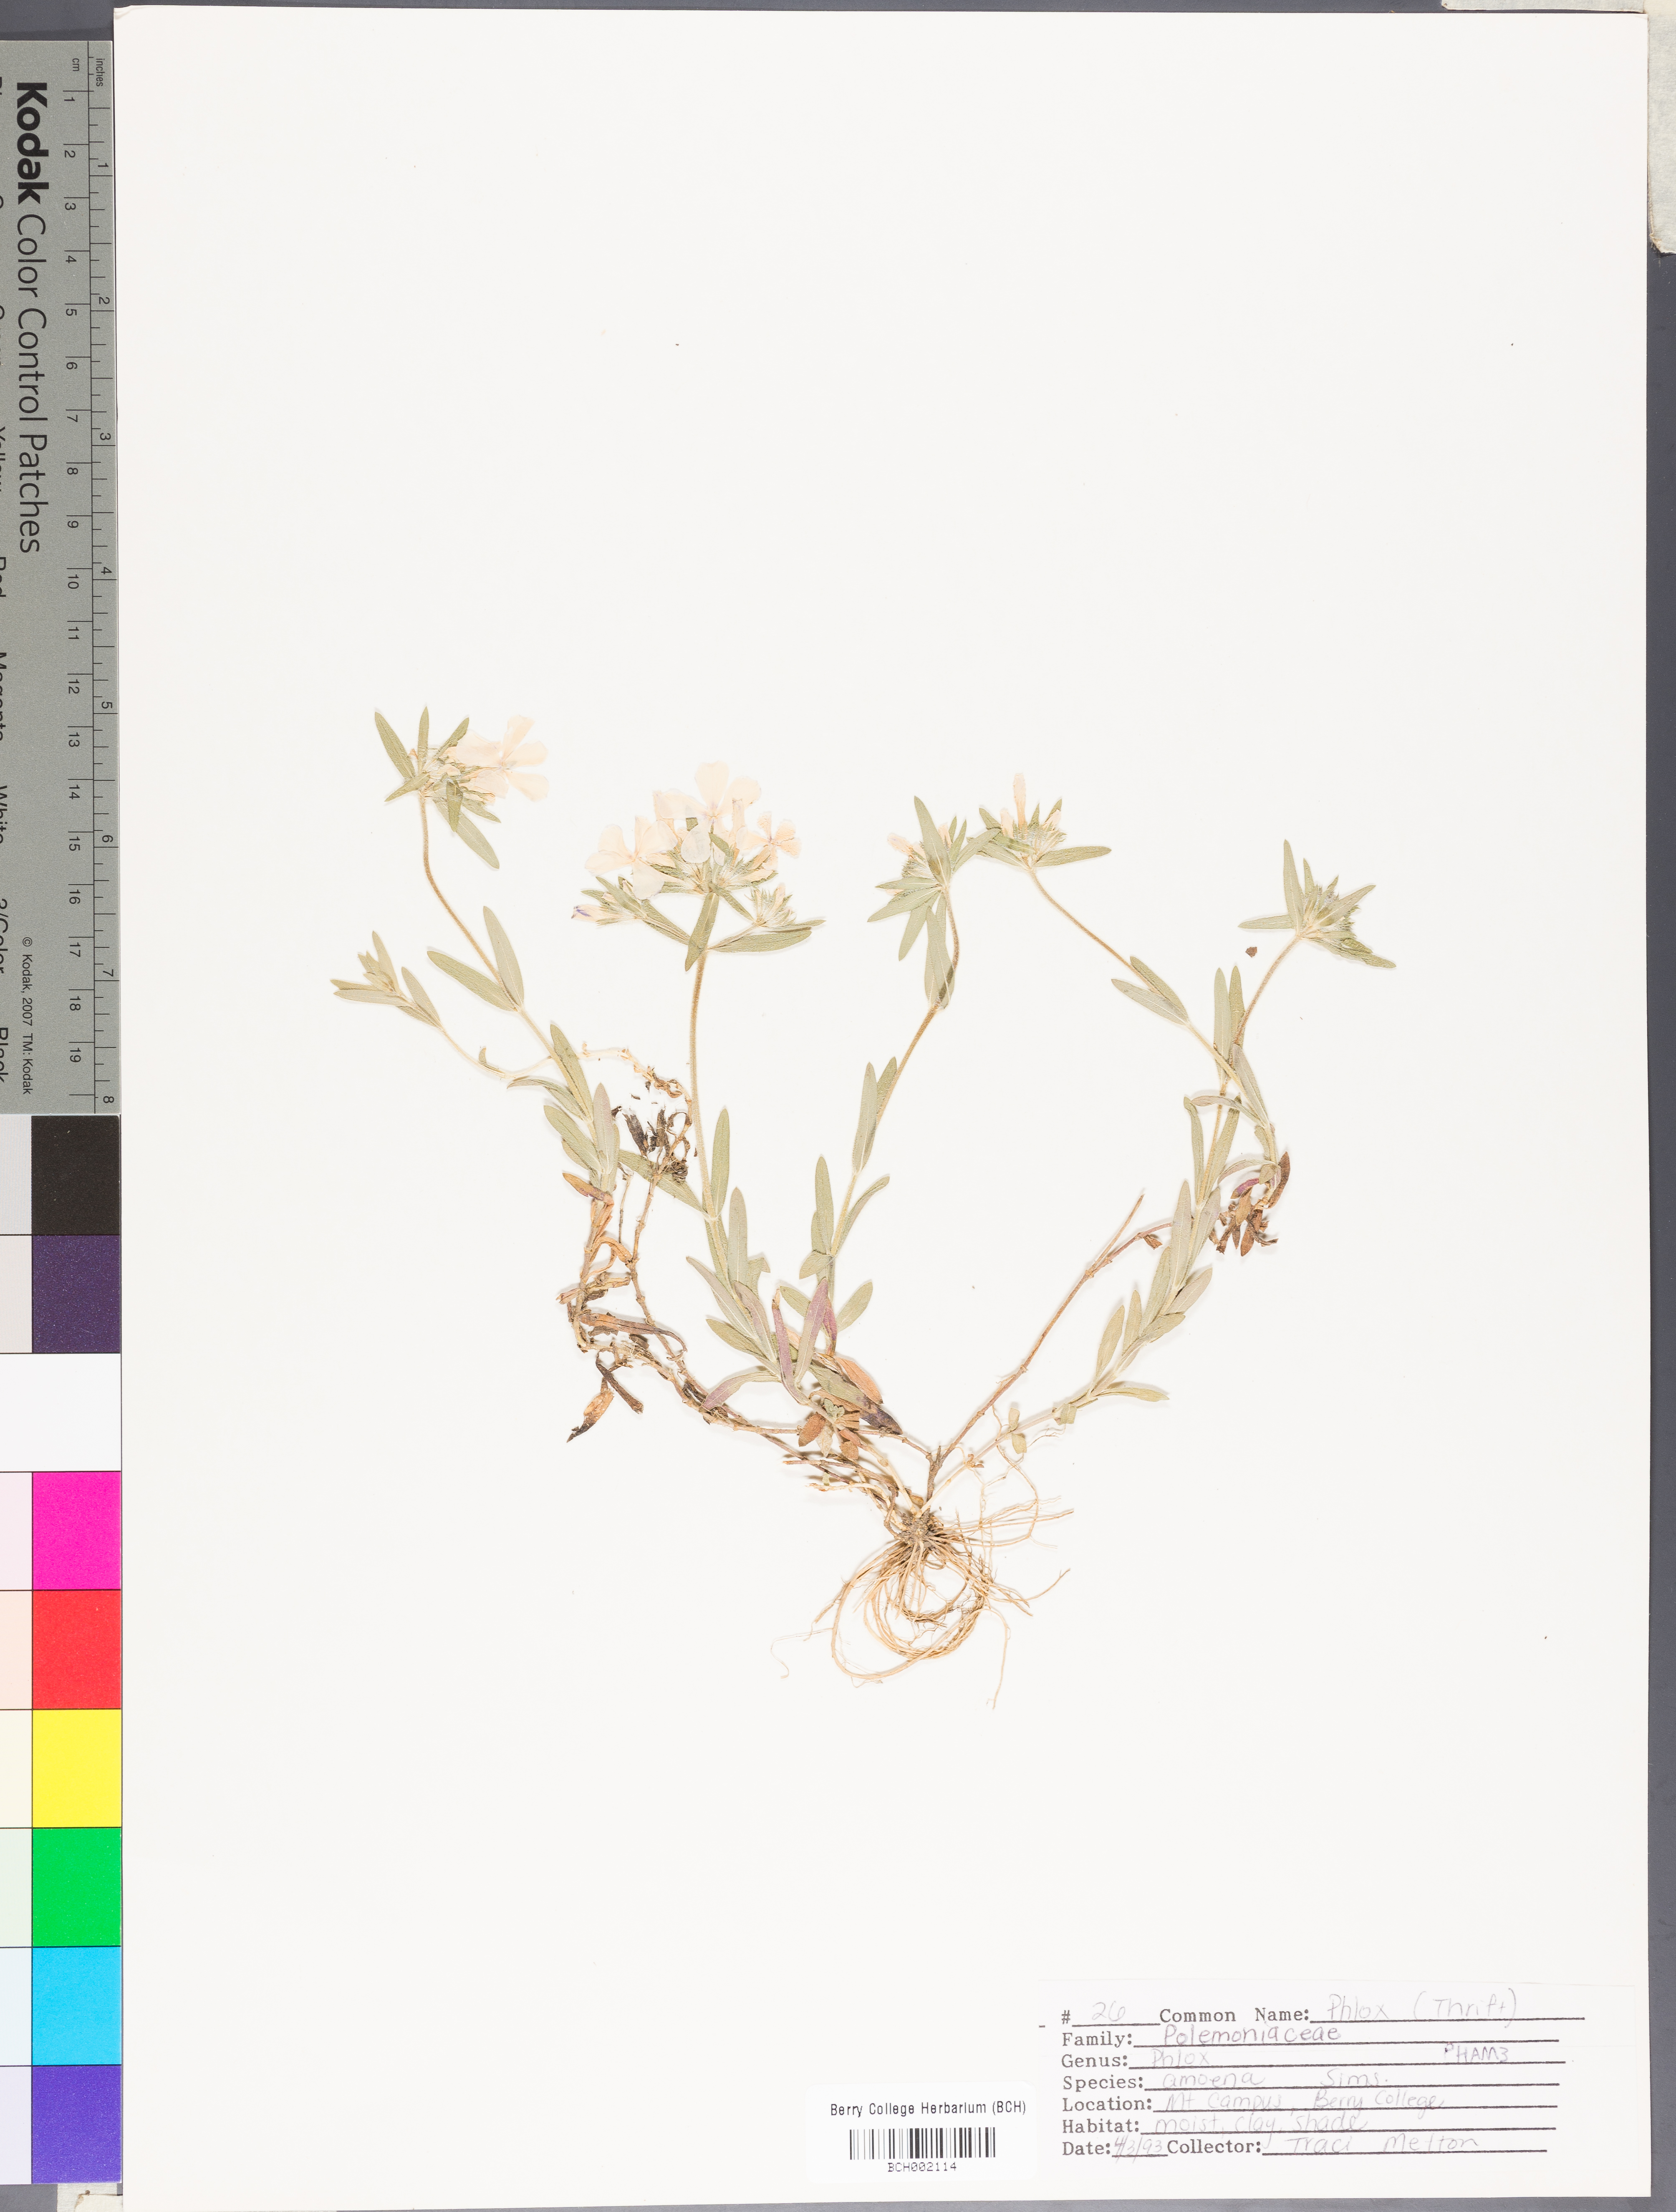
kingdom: Plantae
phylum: Tracheophyta
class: Magnoliopsida
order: Ericales
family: Polemoniaceae
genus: Phlox
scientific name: Phlox amoena
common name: Hairy phlox
